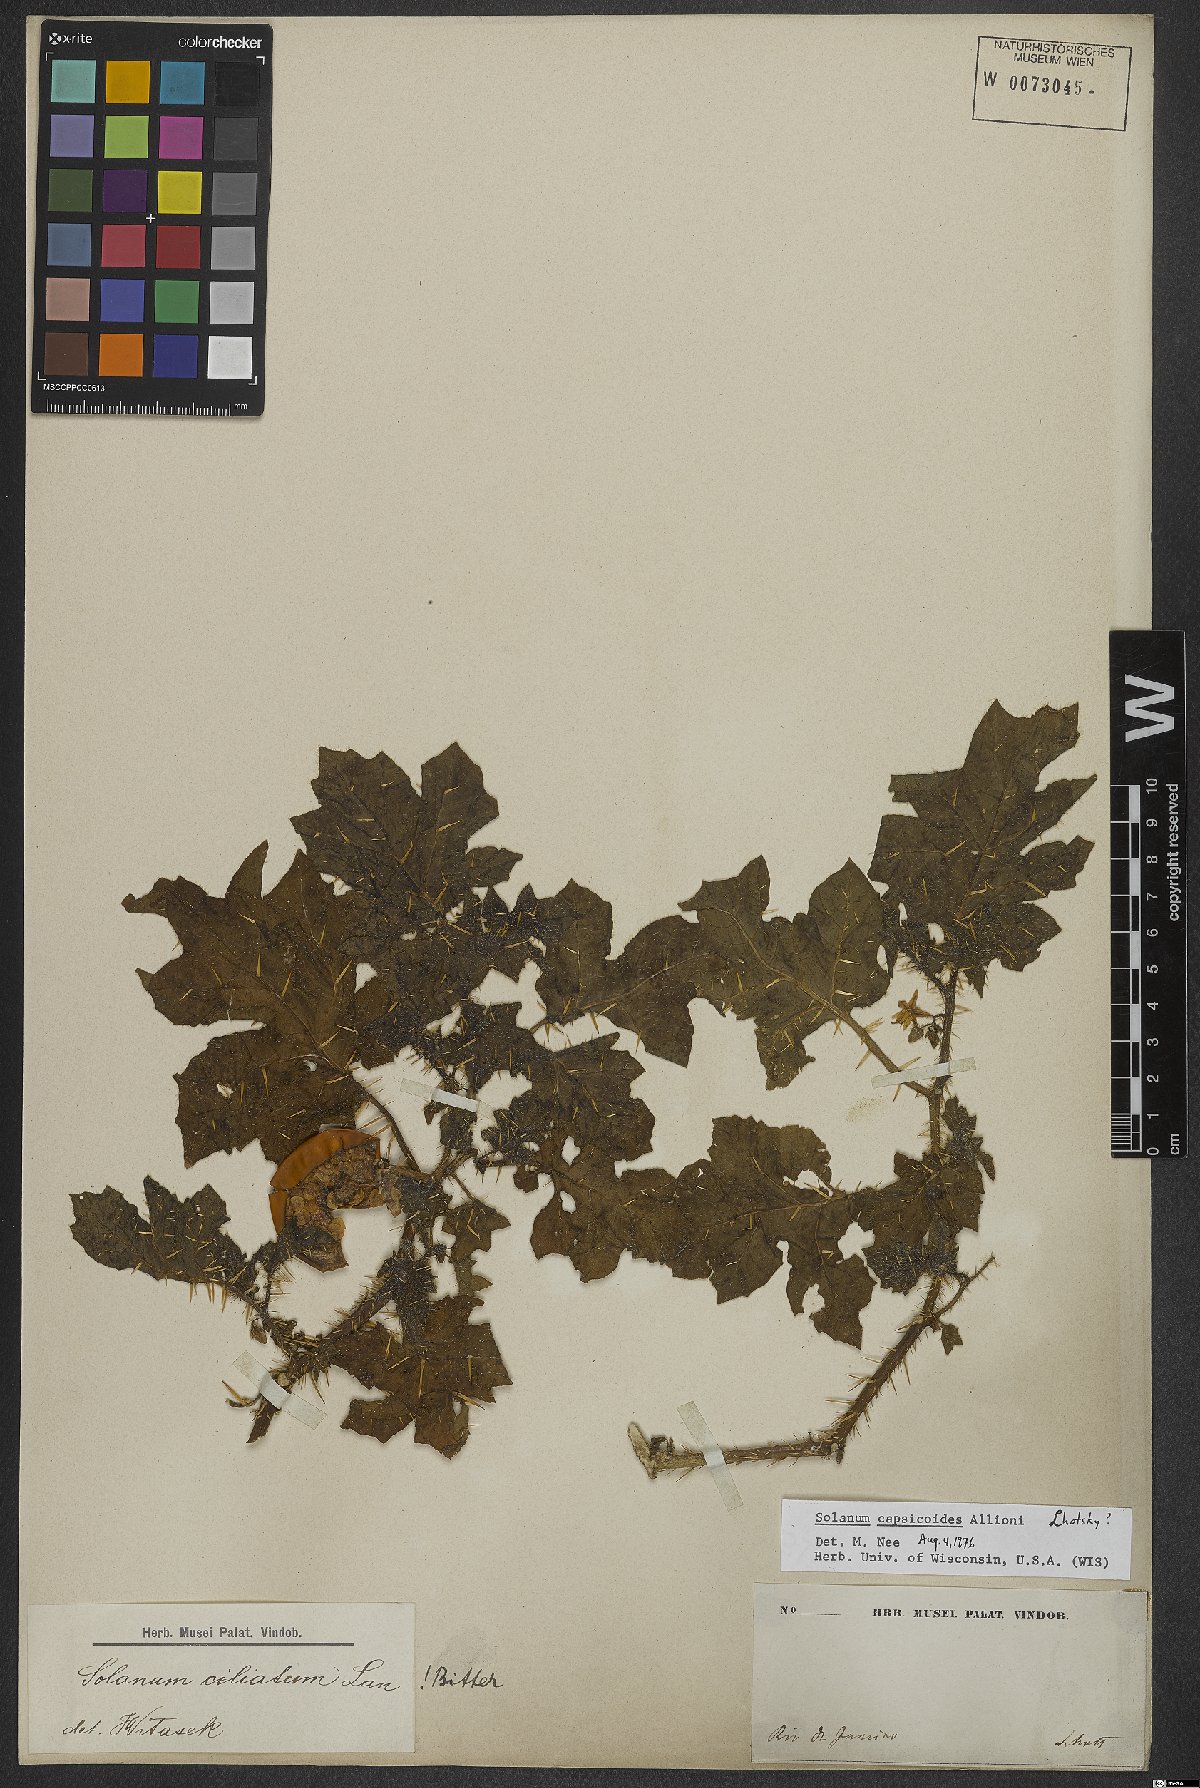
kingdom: Plantae
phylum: Tracheophyta
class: Magnoliopsida
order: Solanales
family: Solanaceae
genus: Solanum
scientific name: Solanum capsicoides
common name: Cockroach berry
